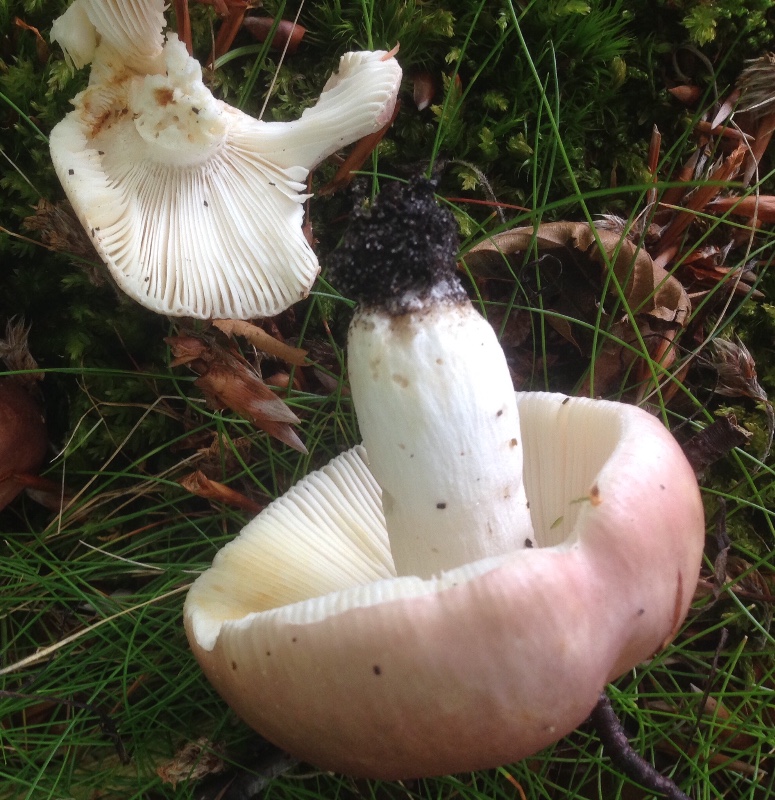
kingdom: Fungi
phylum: Basidiomycota
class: Agaricomycetes
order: Russulales
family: Russulaceae
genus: Russula
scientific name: Russula vesca
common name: spiselig skørhat
